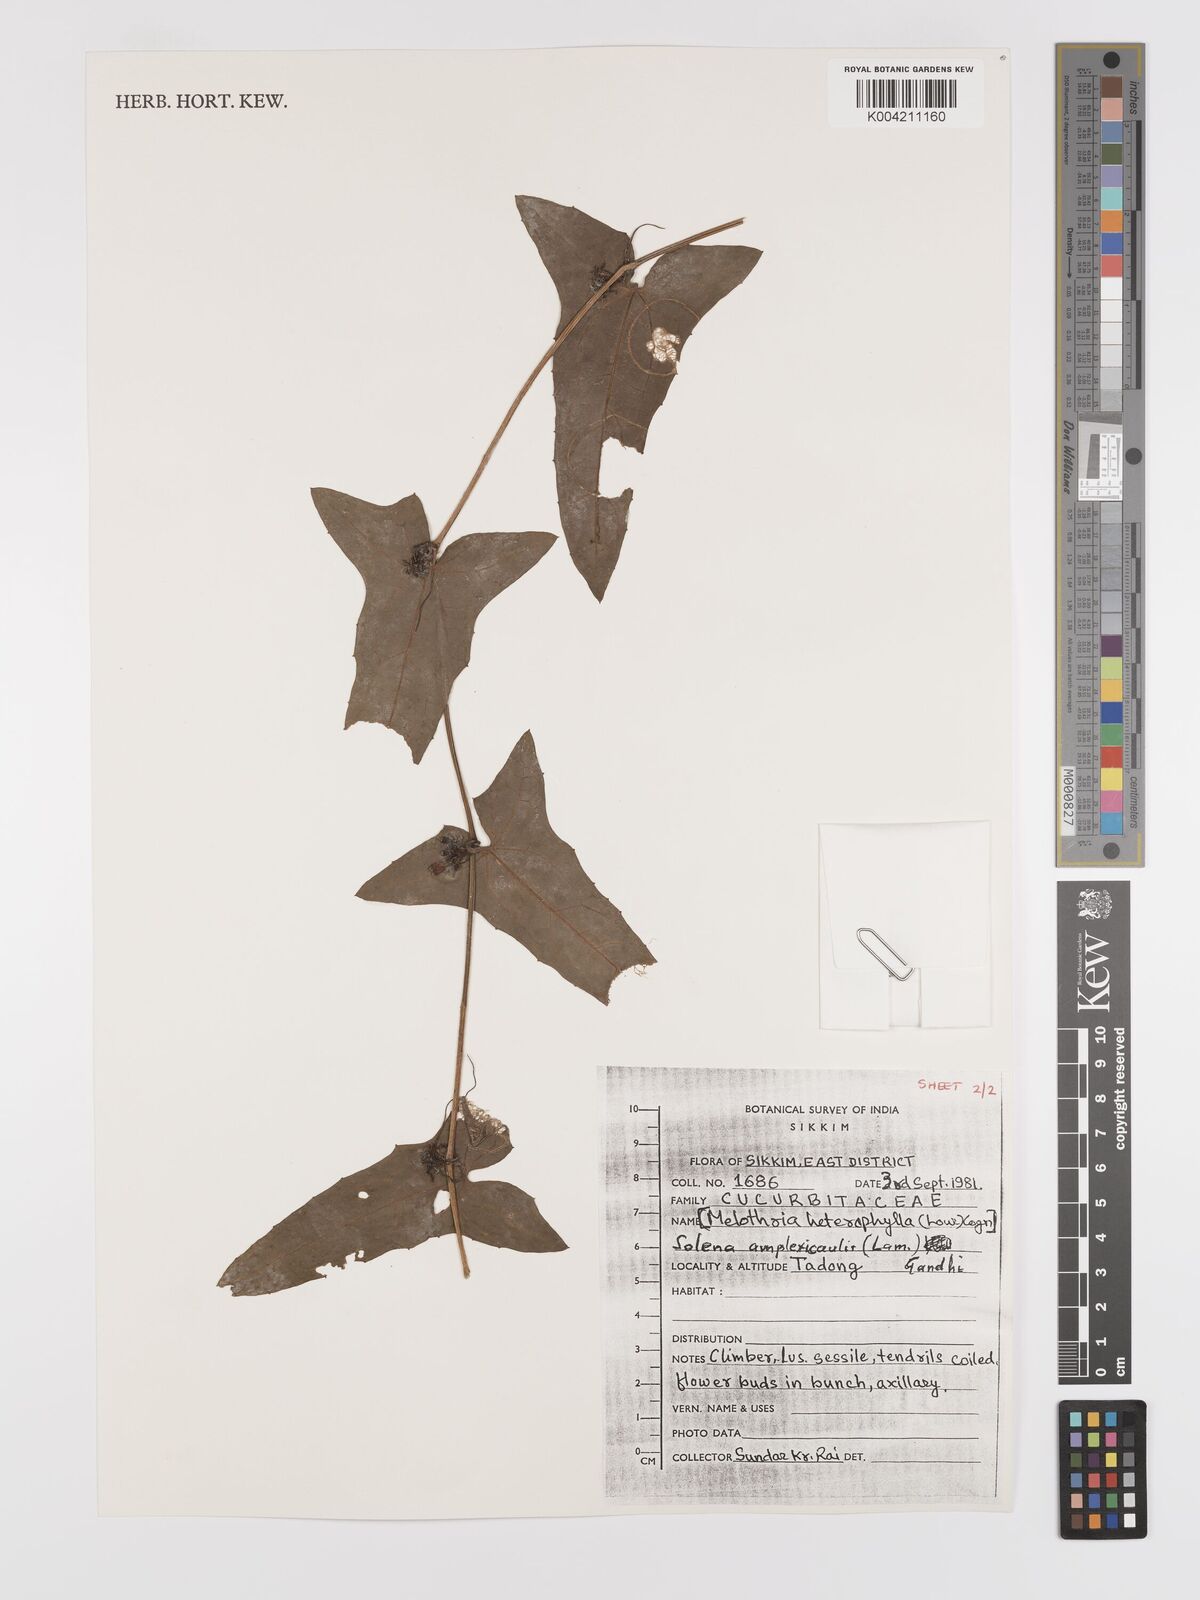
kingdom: Plantae
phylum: Tracheophyta
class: Magnoliopsida
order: Cucurbitales
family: Cucurbitaceae
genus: Solena
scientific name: Solena amplexicaulis
